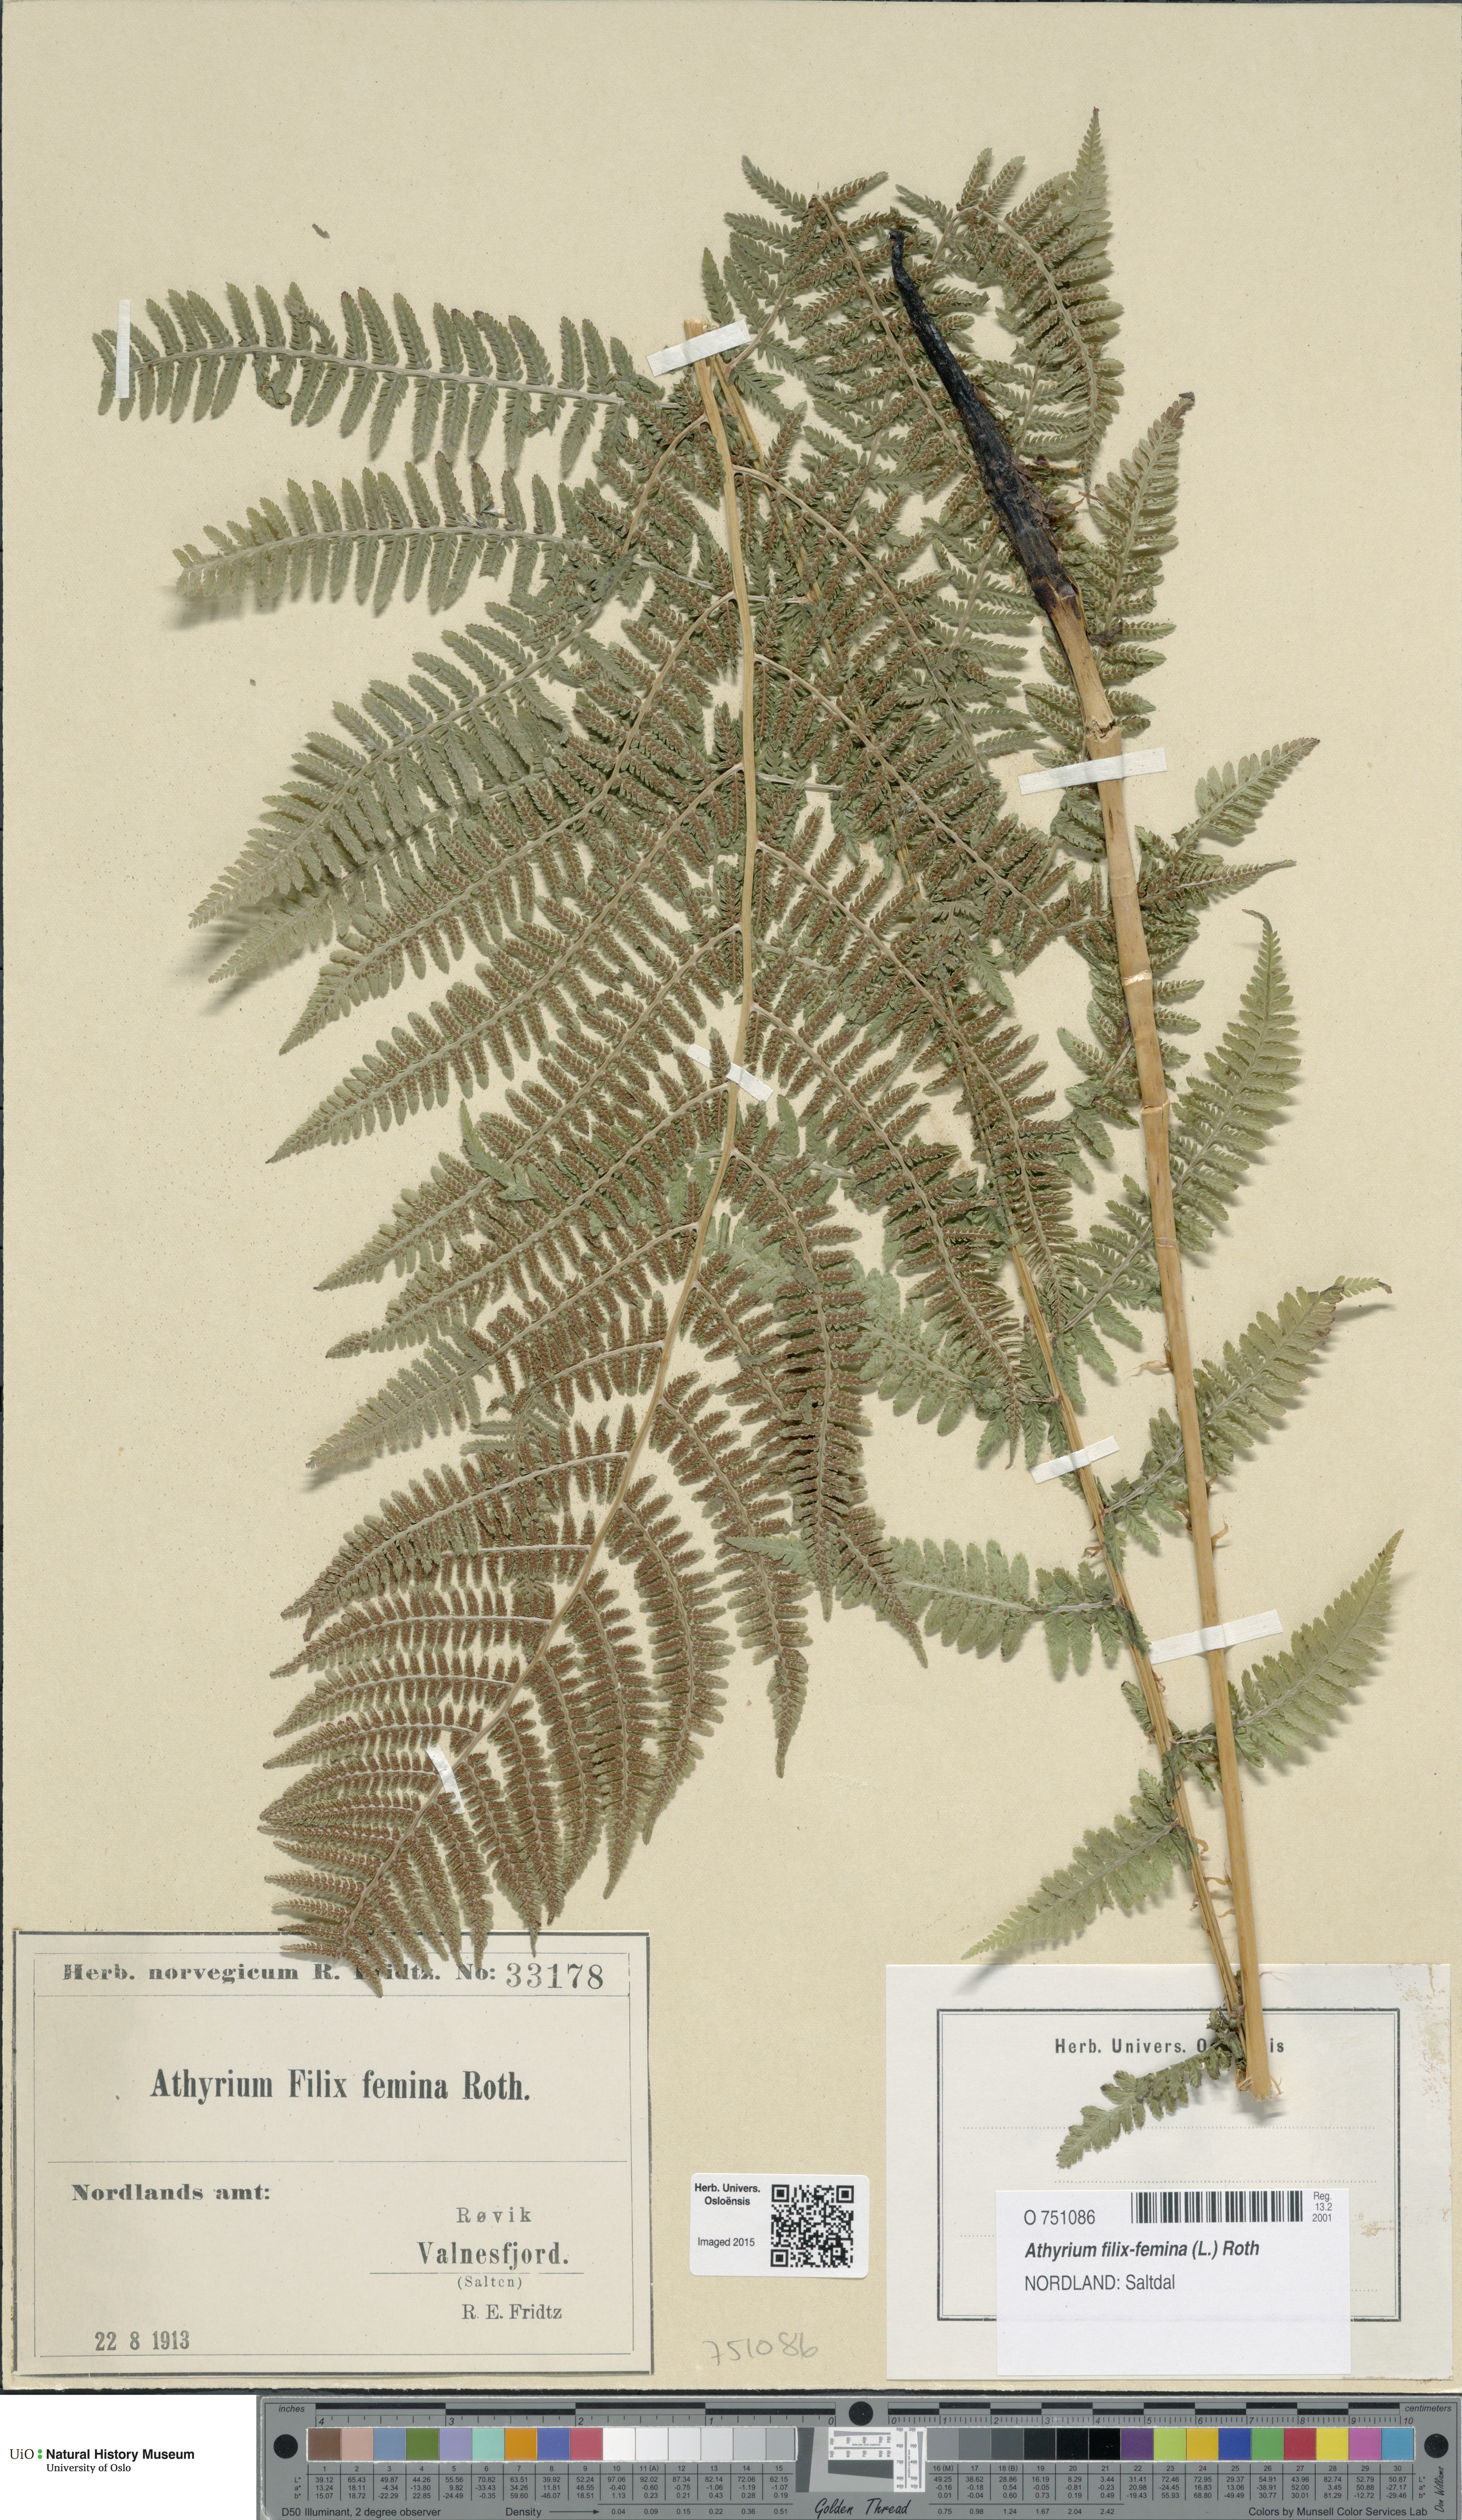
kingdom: Plantae
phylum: Tracheophyta
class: Polypodiopsida
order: Polypodiales
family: Athyriaceae
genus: Athyrium
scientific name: Athyrium filix-femina
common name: Lady fern
